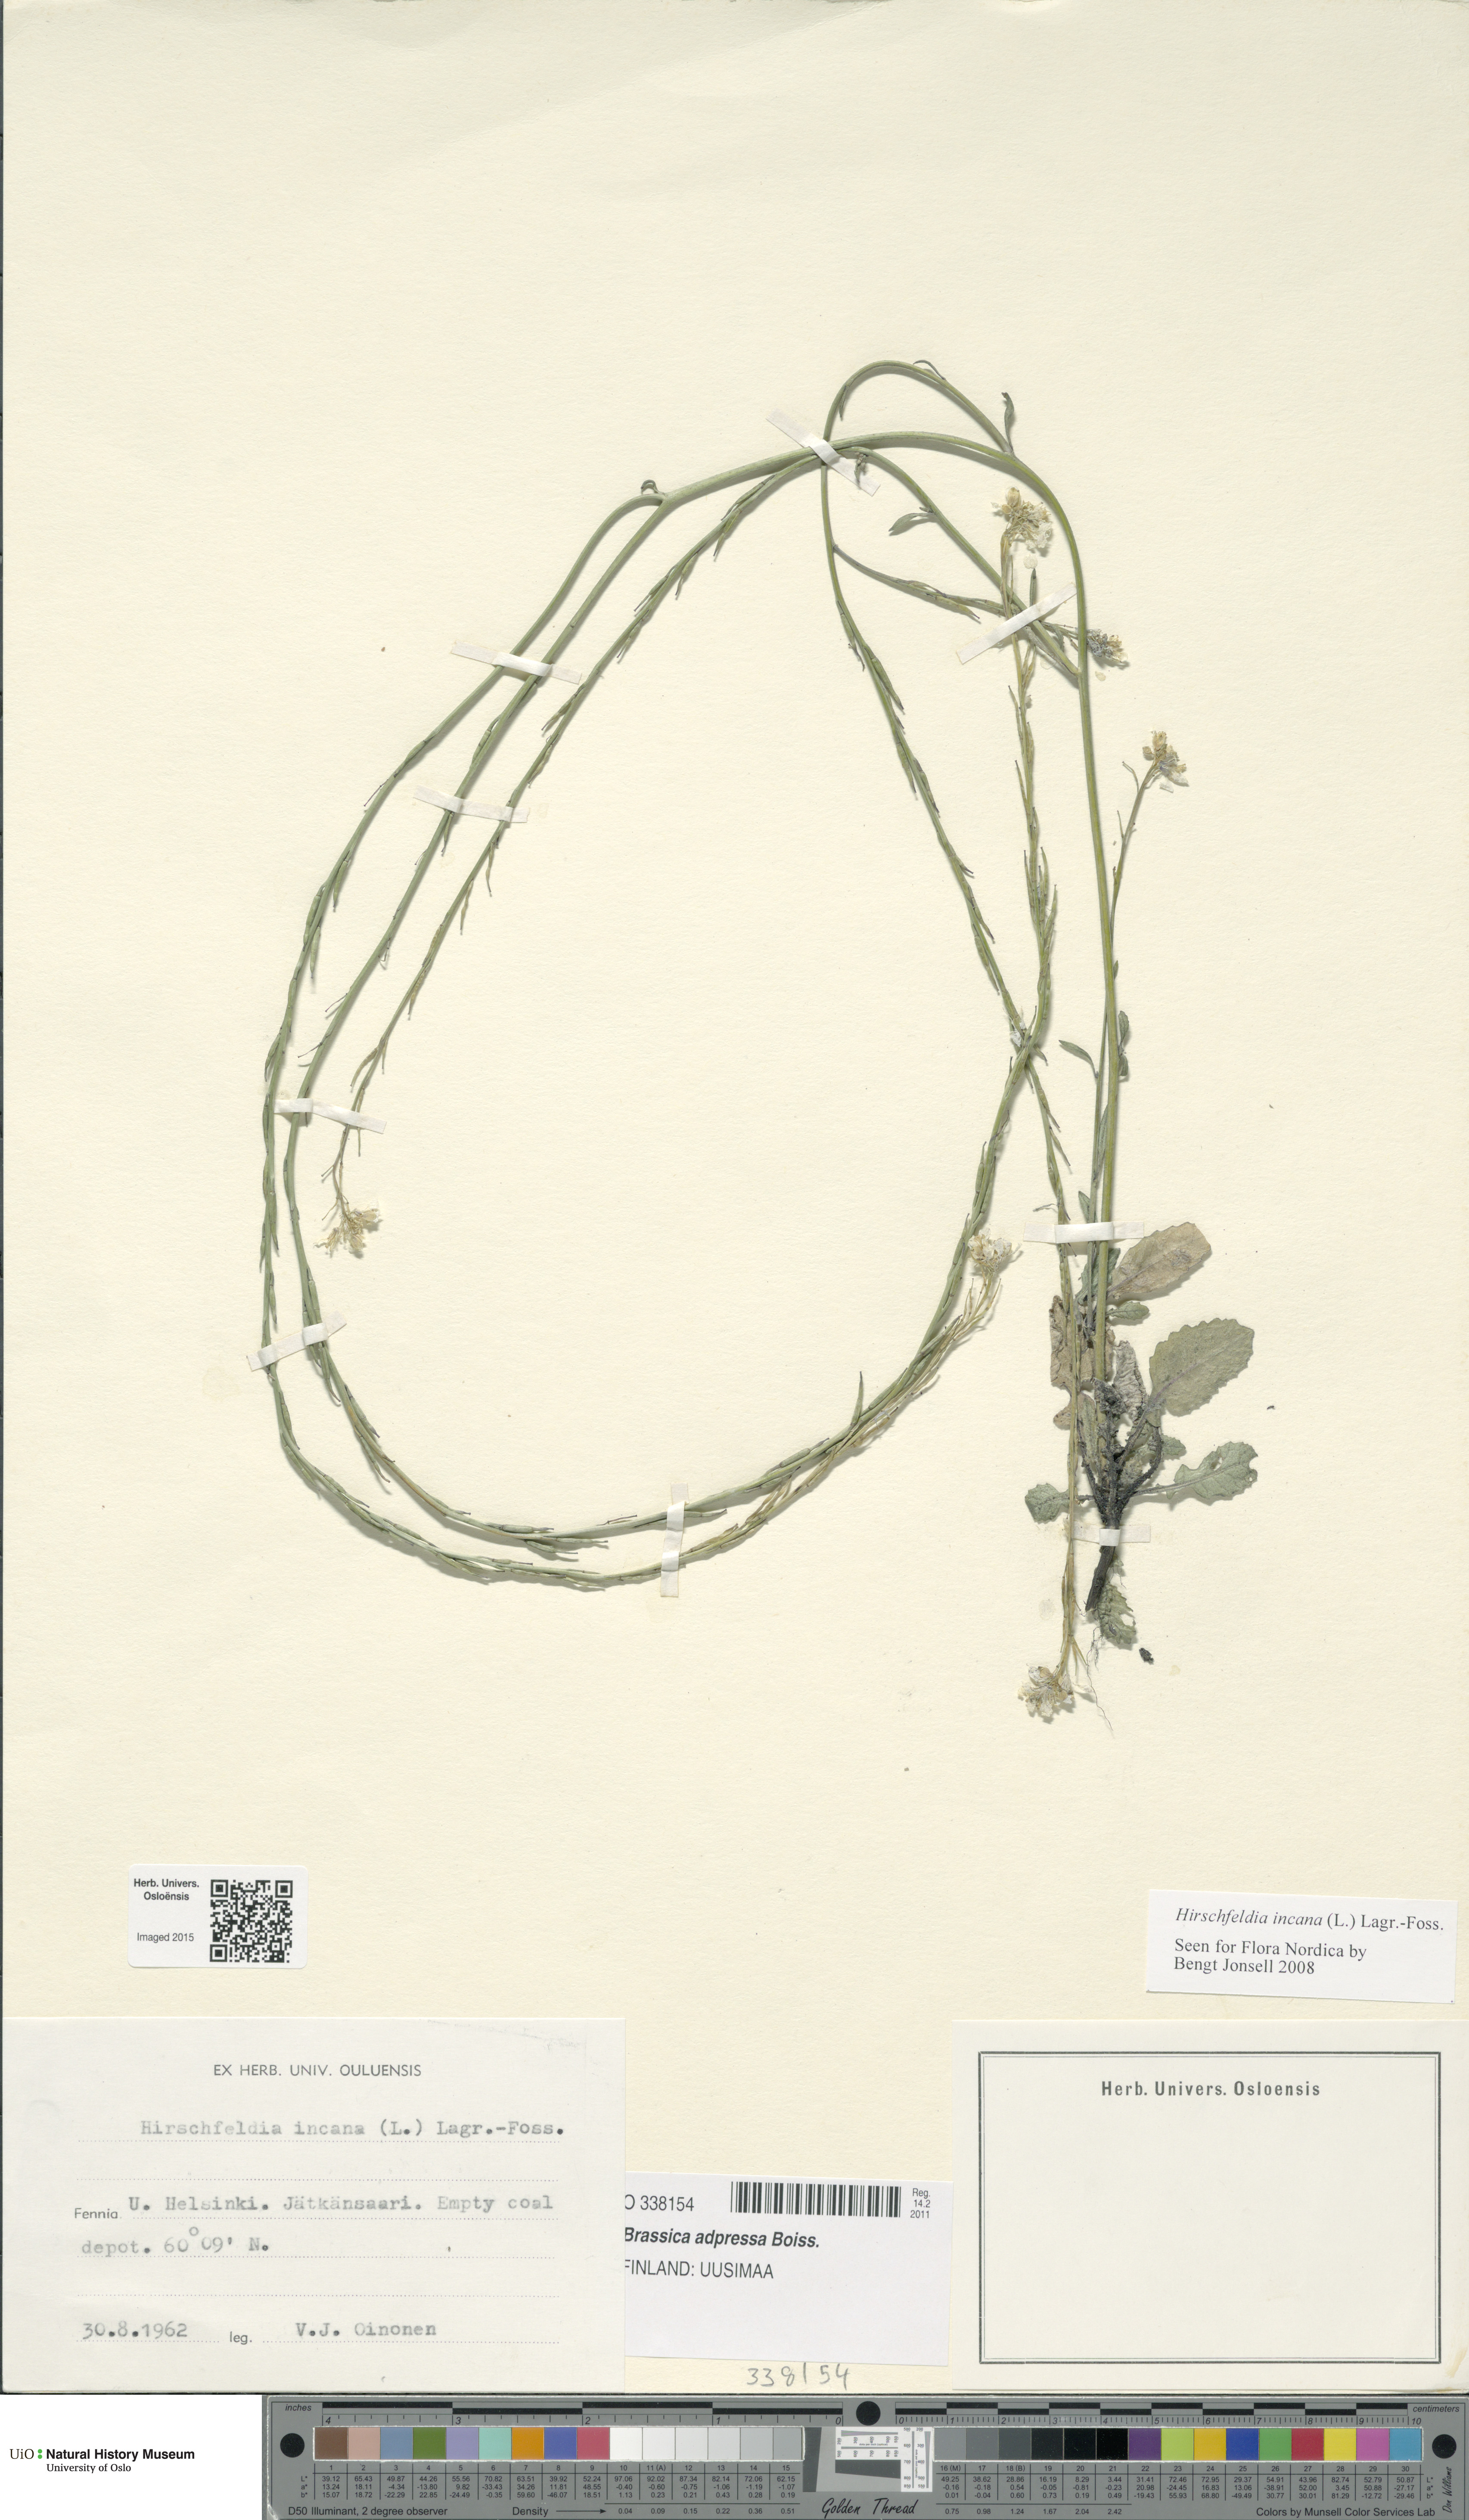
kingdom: Plantae
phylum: Tracheophyta
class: Magnoliopsida
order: Brassicales
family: Brassicaceae
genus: Hirschfeldia
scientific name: Hirschfeldia incana
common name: Hoary mustard
